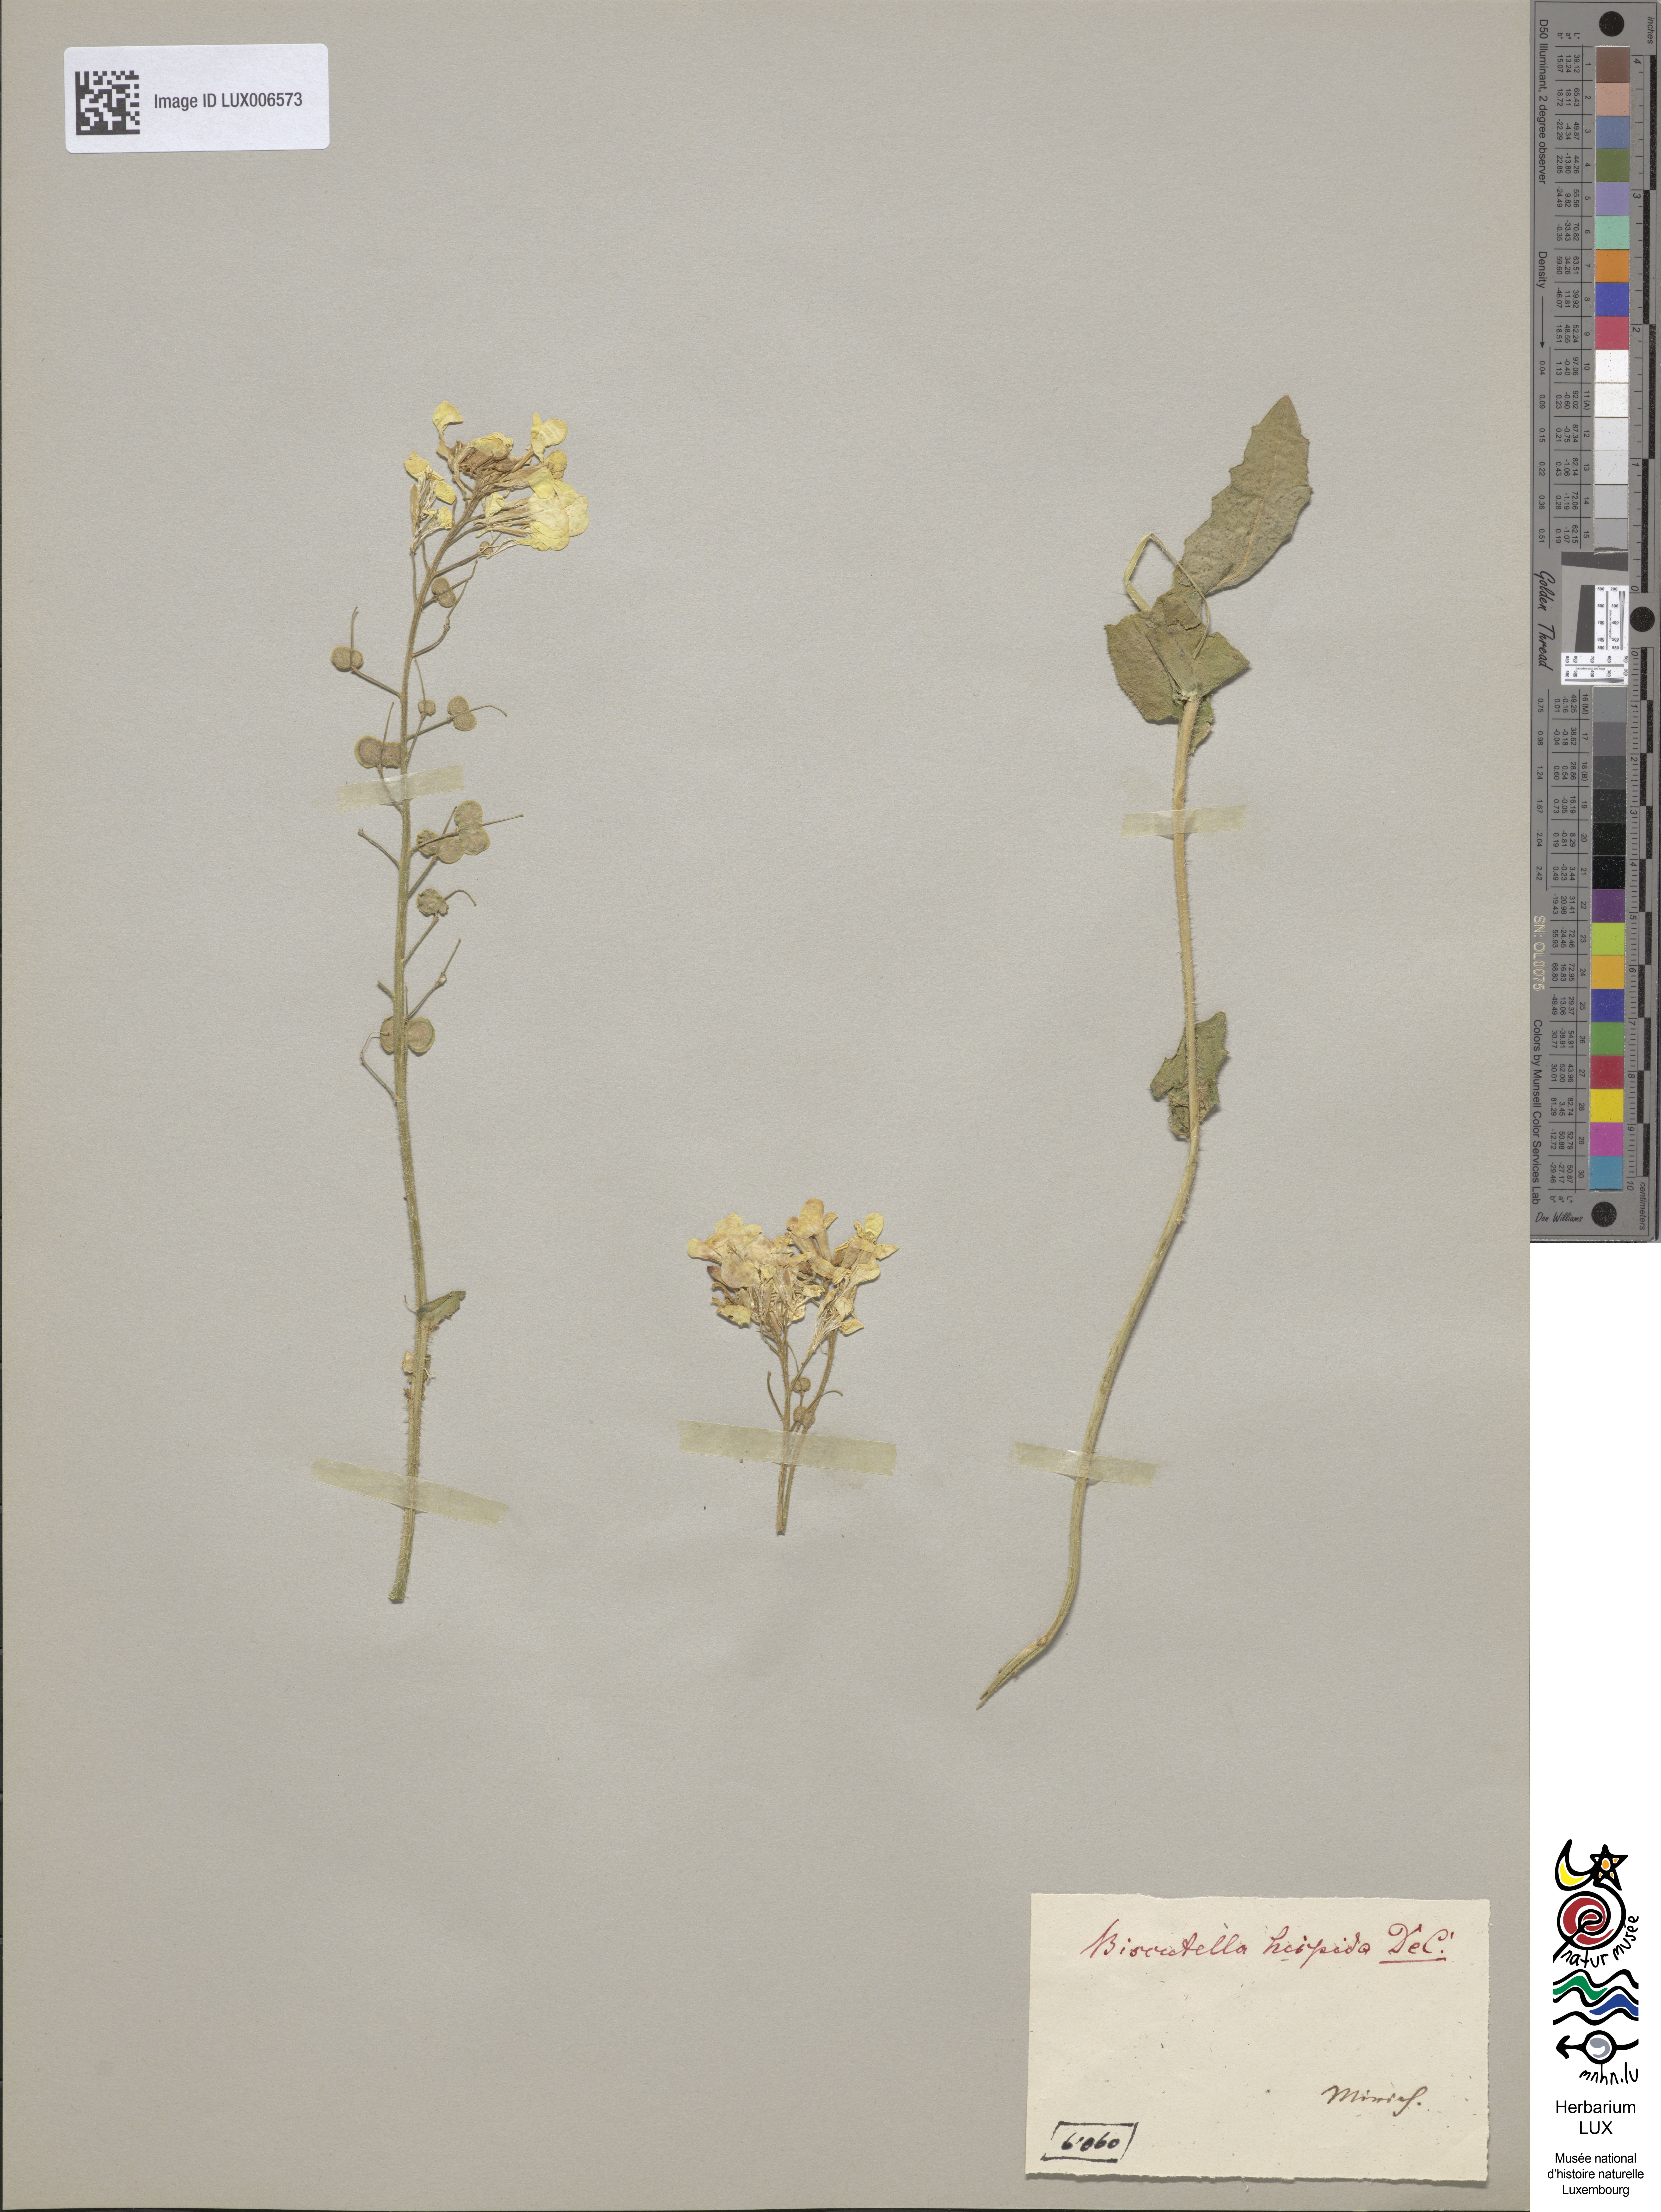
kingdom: Plantae
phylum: Tracheophyta
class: Magnoliopsida
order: Brassicales
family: Brassicaceae
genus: Biscutella
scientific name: Biscutella laevigata
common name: Buckler mustard
